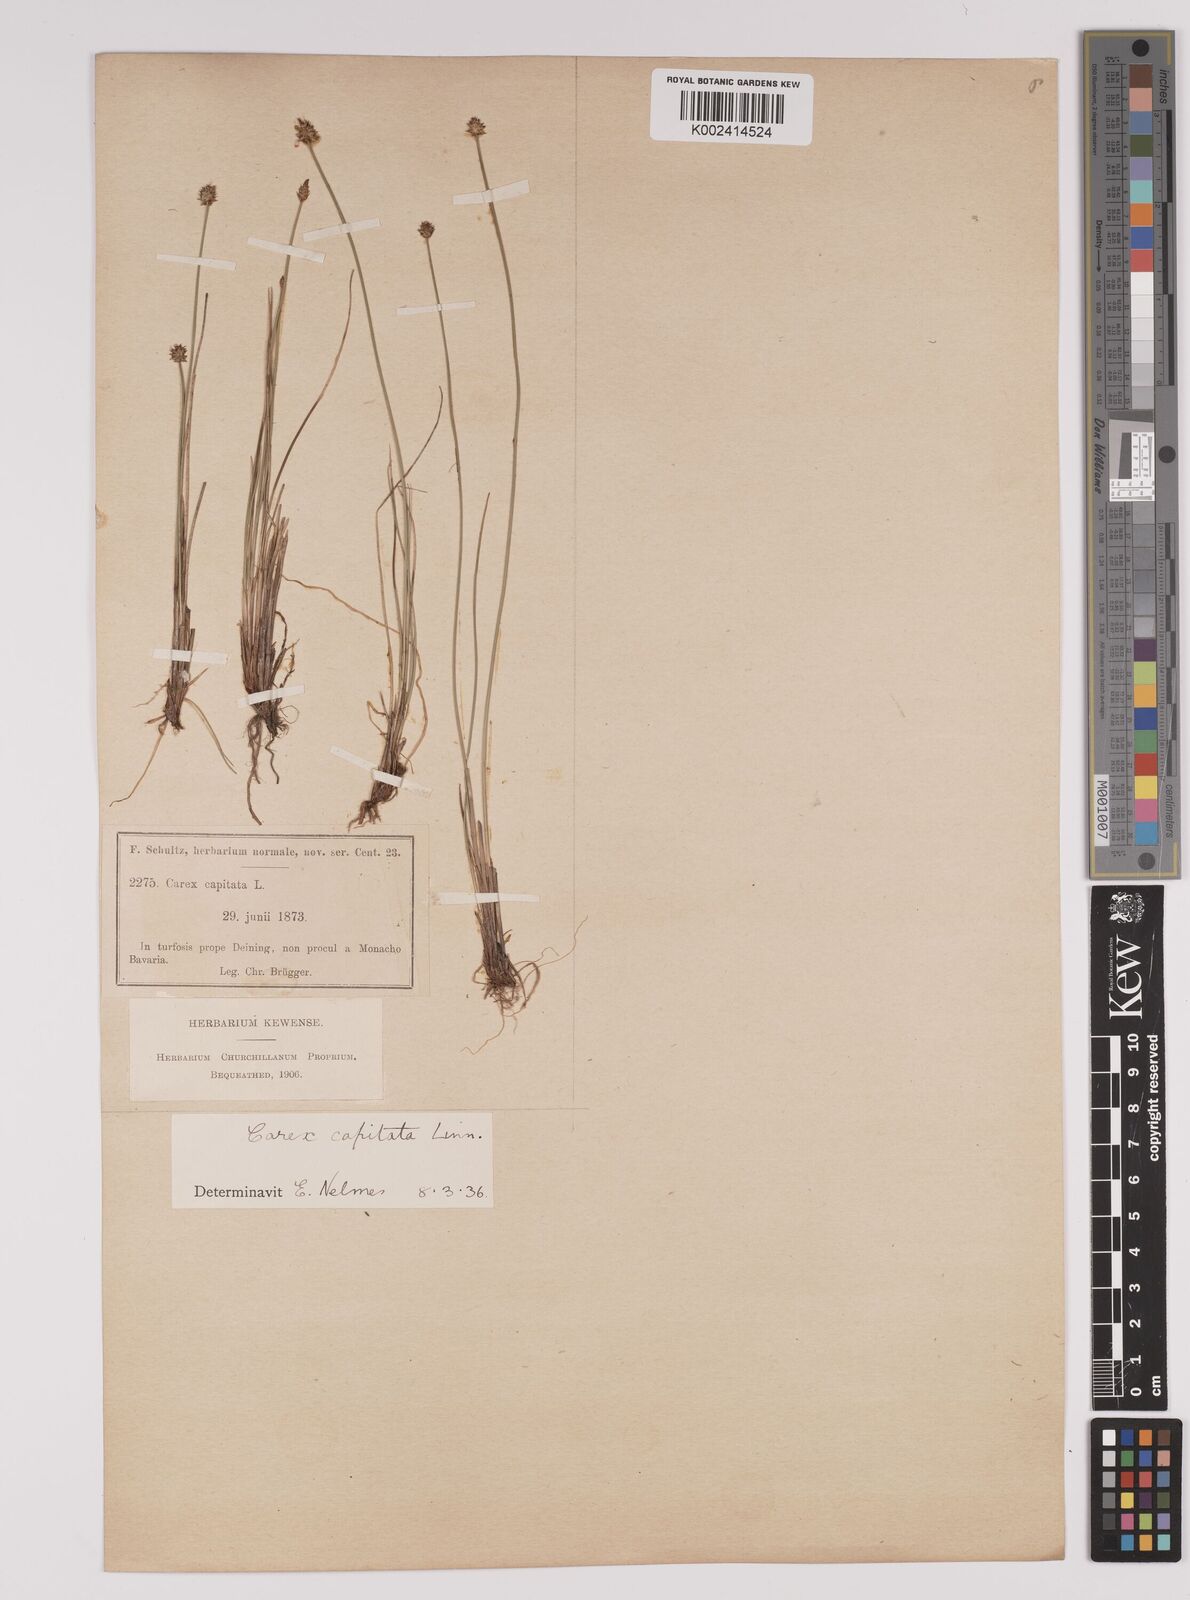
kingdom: Plantae
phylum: Tracheophyta
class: Liliopsida
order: Poales
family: Cyperaceae
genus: Carex
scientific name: Carex capitata
